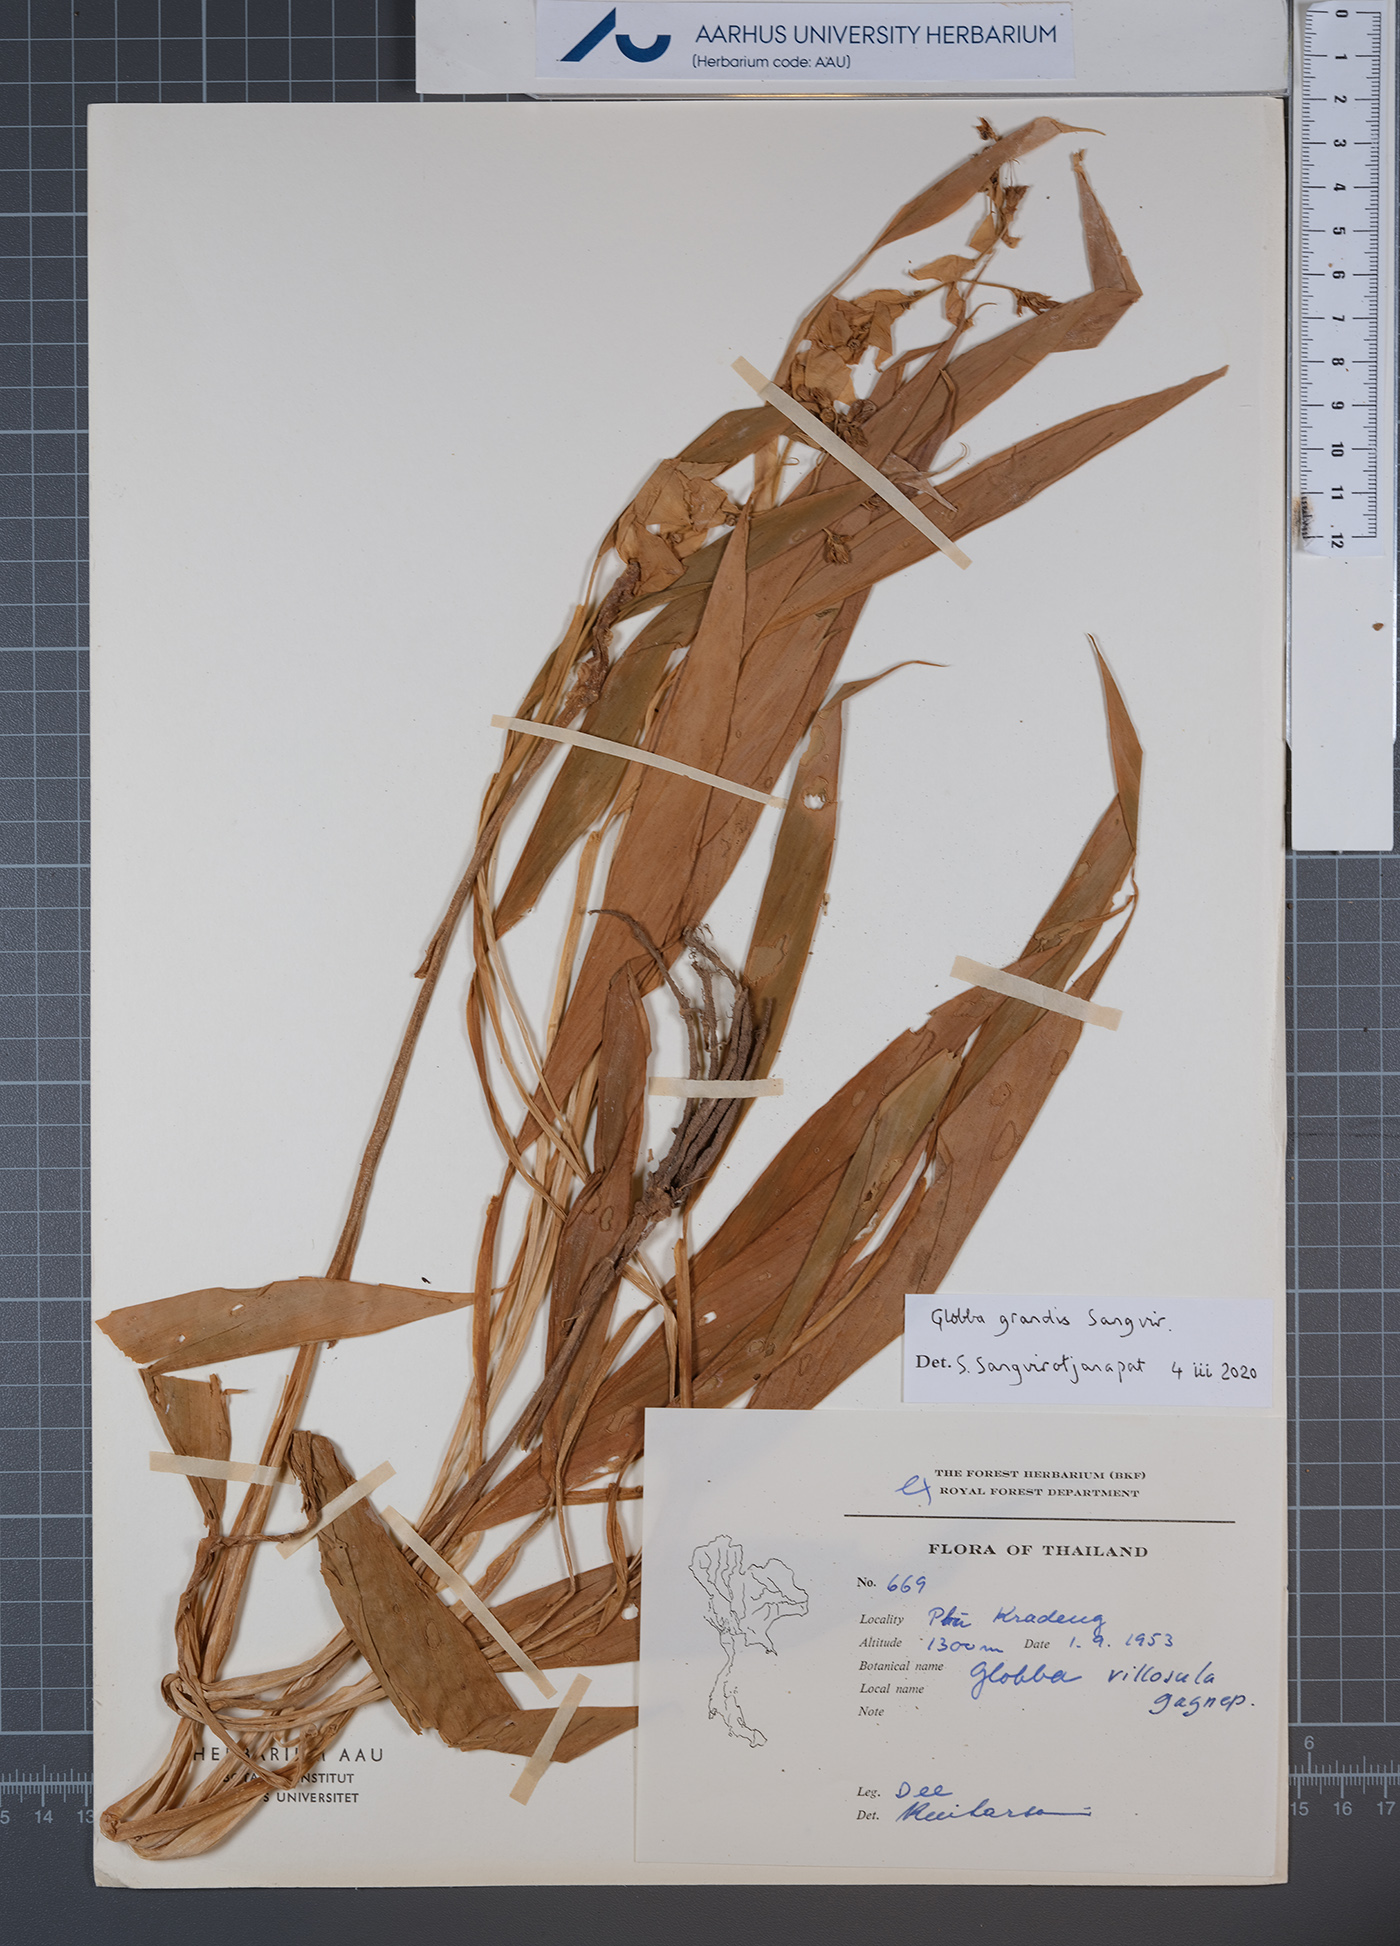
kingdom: Plantae
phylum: Tracheophyta
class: Liliopsida
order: Zingiberales
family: Zingiberaceae
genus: Globba
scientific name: Globba grandis
